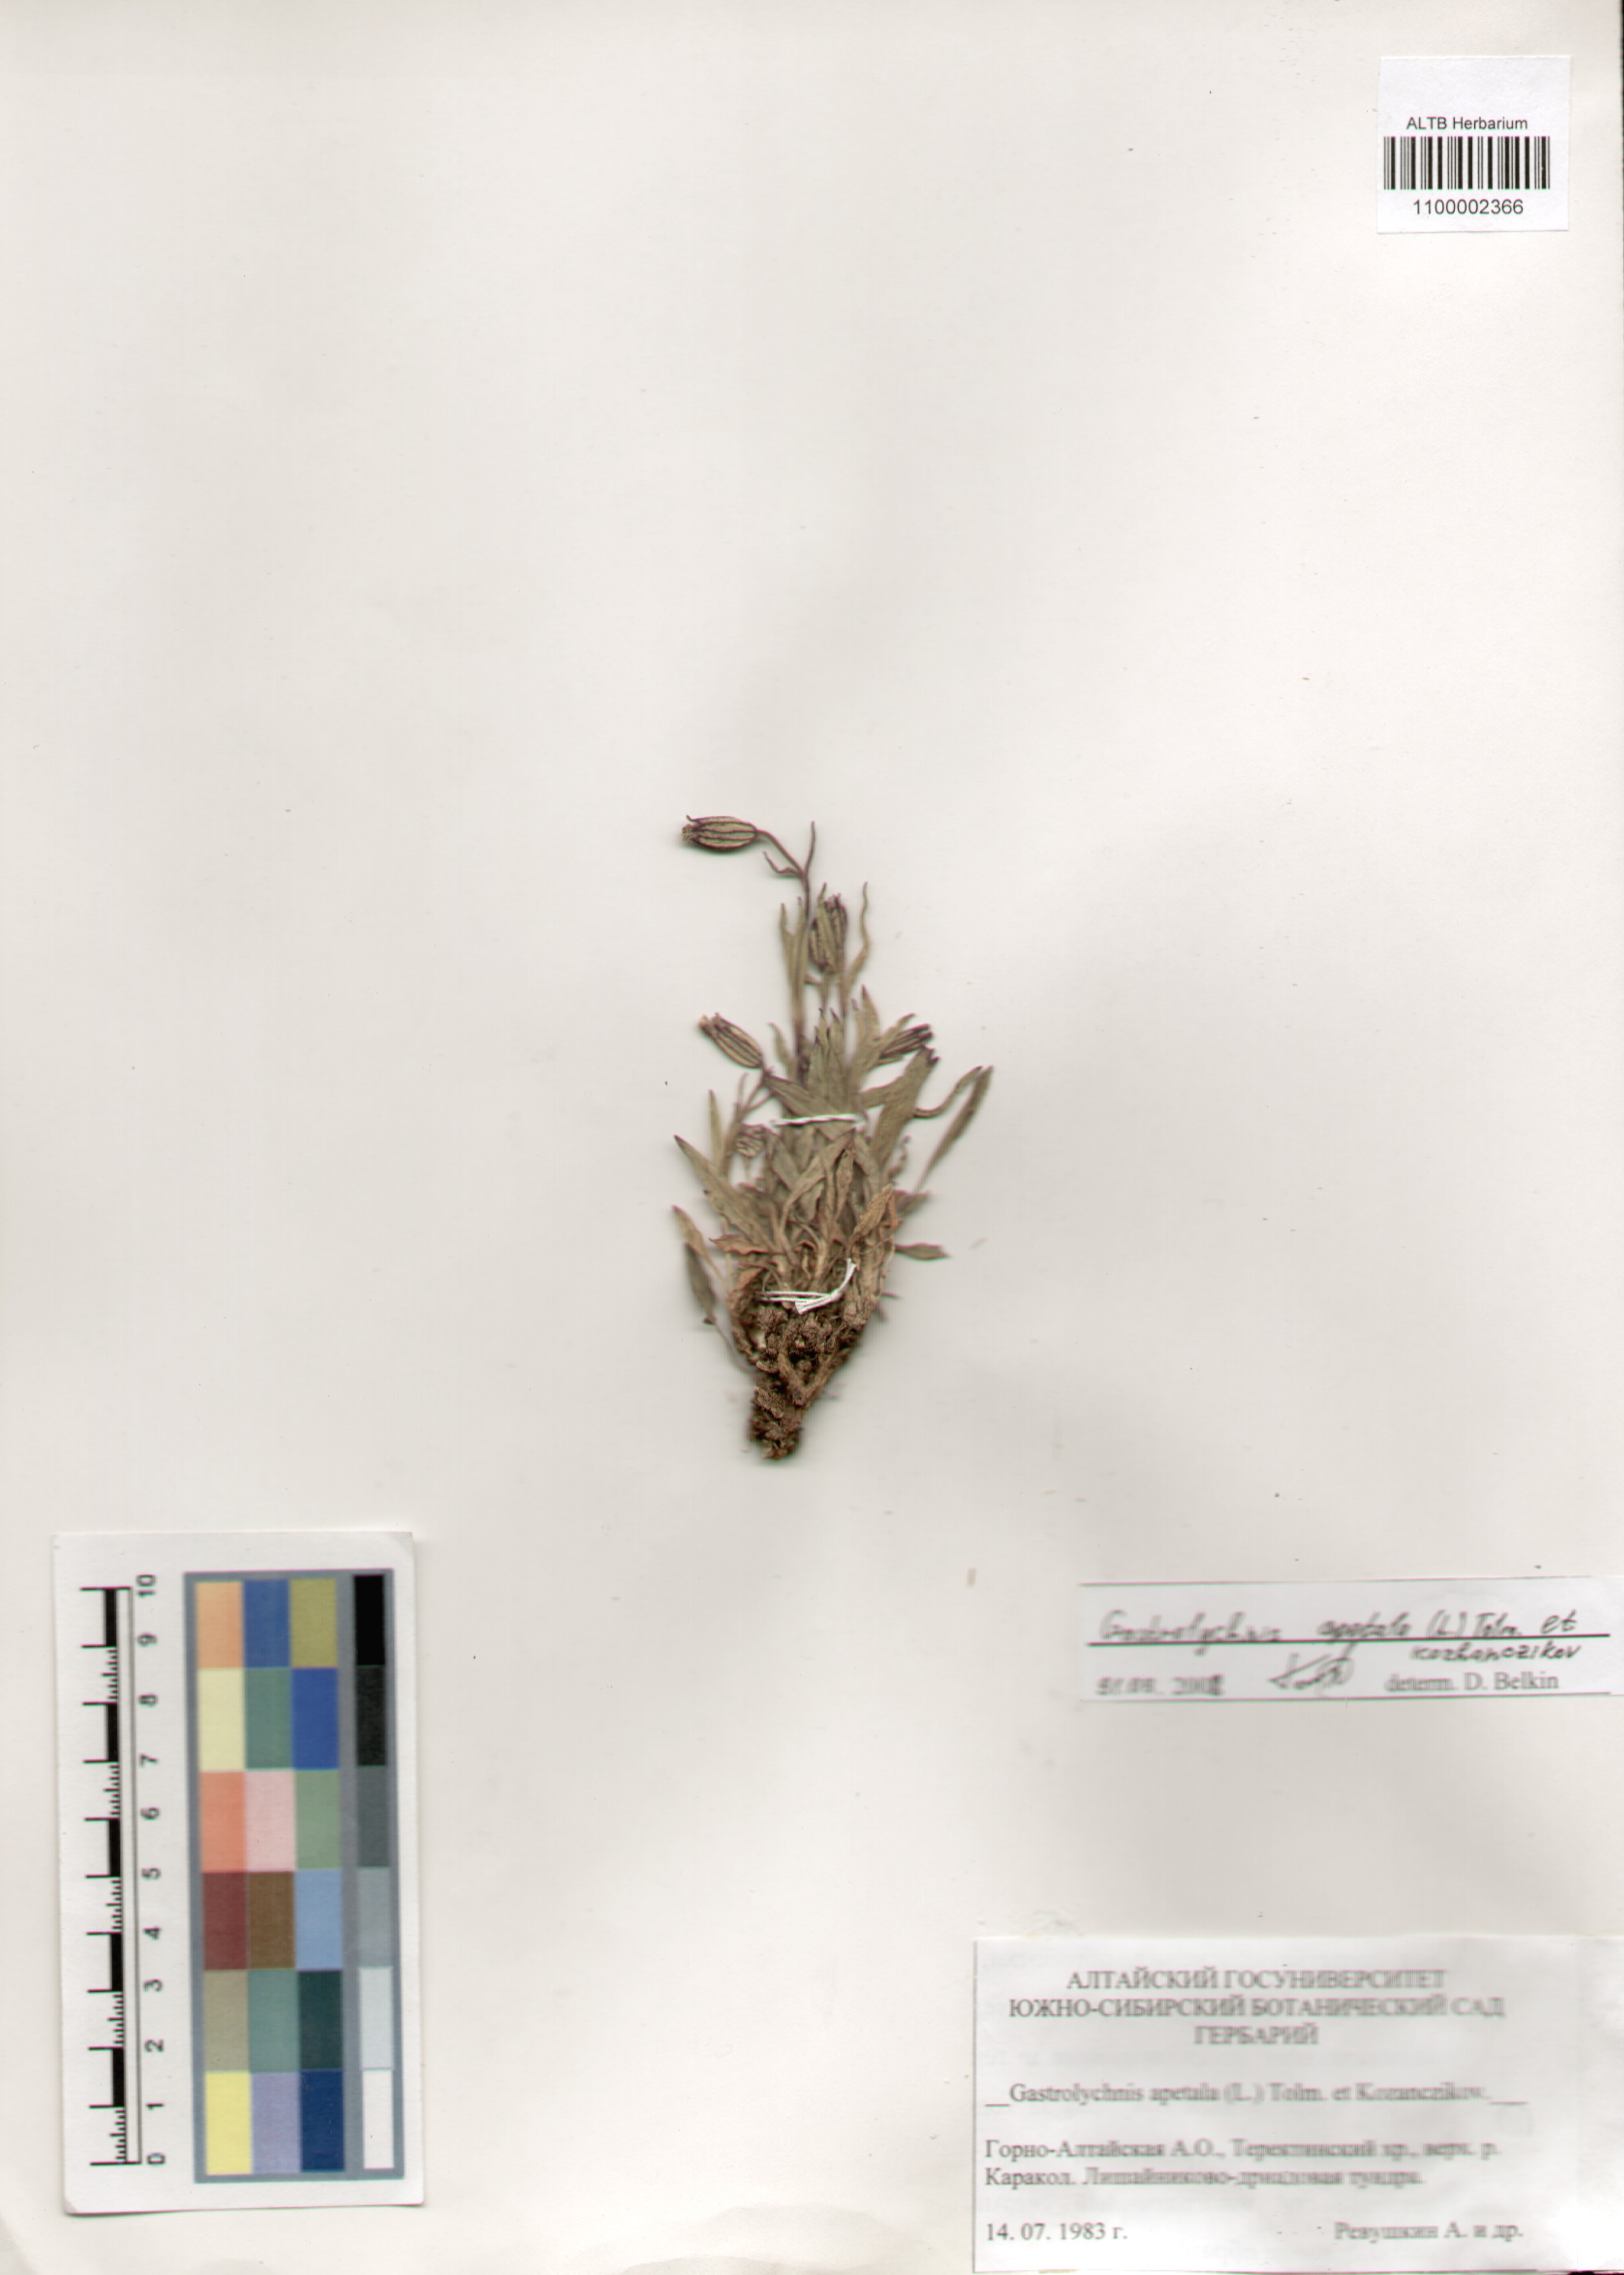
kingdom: Plantae
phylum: Tracheophyta
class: Magnoliopsida
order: Caryophyllales
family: Caryophyllaceae
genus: Silene
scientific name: Silene wahlbergella
